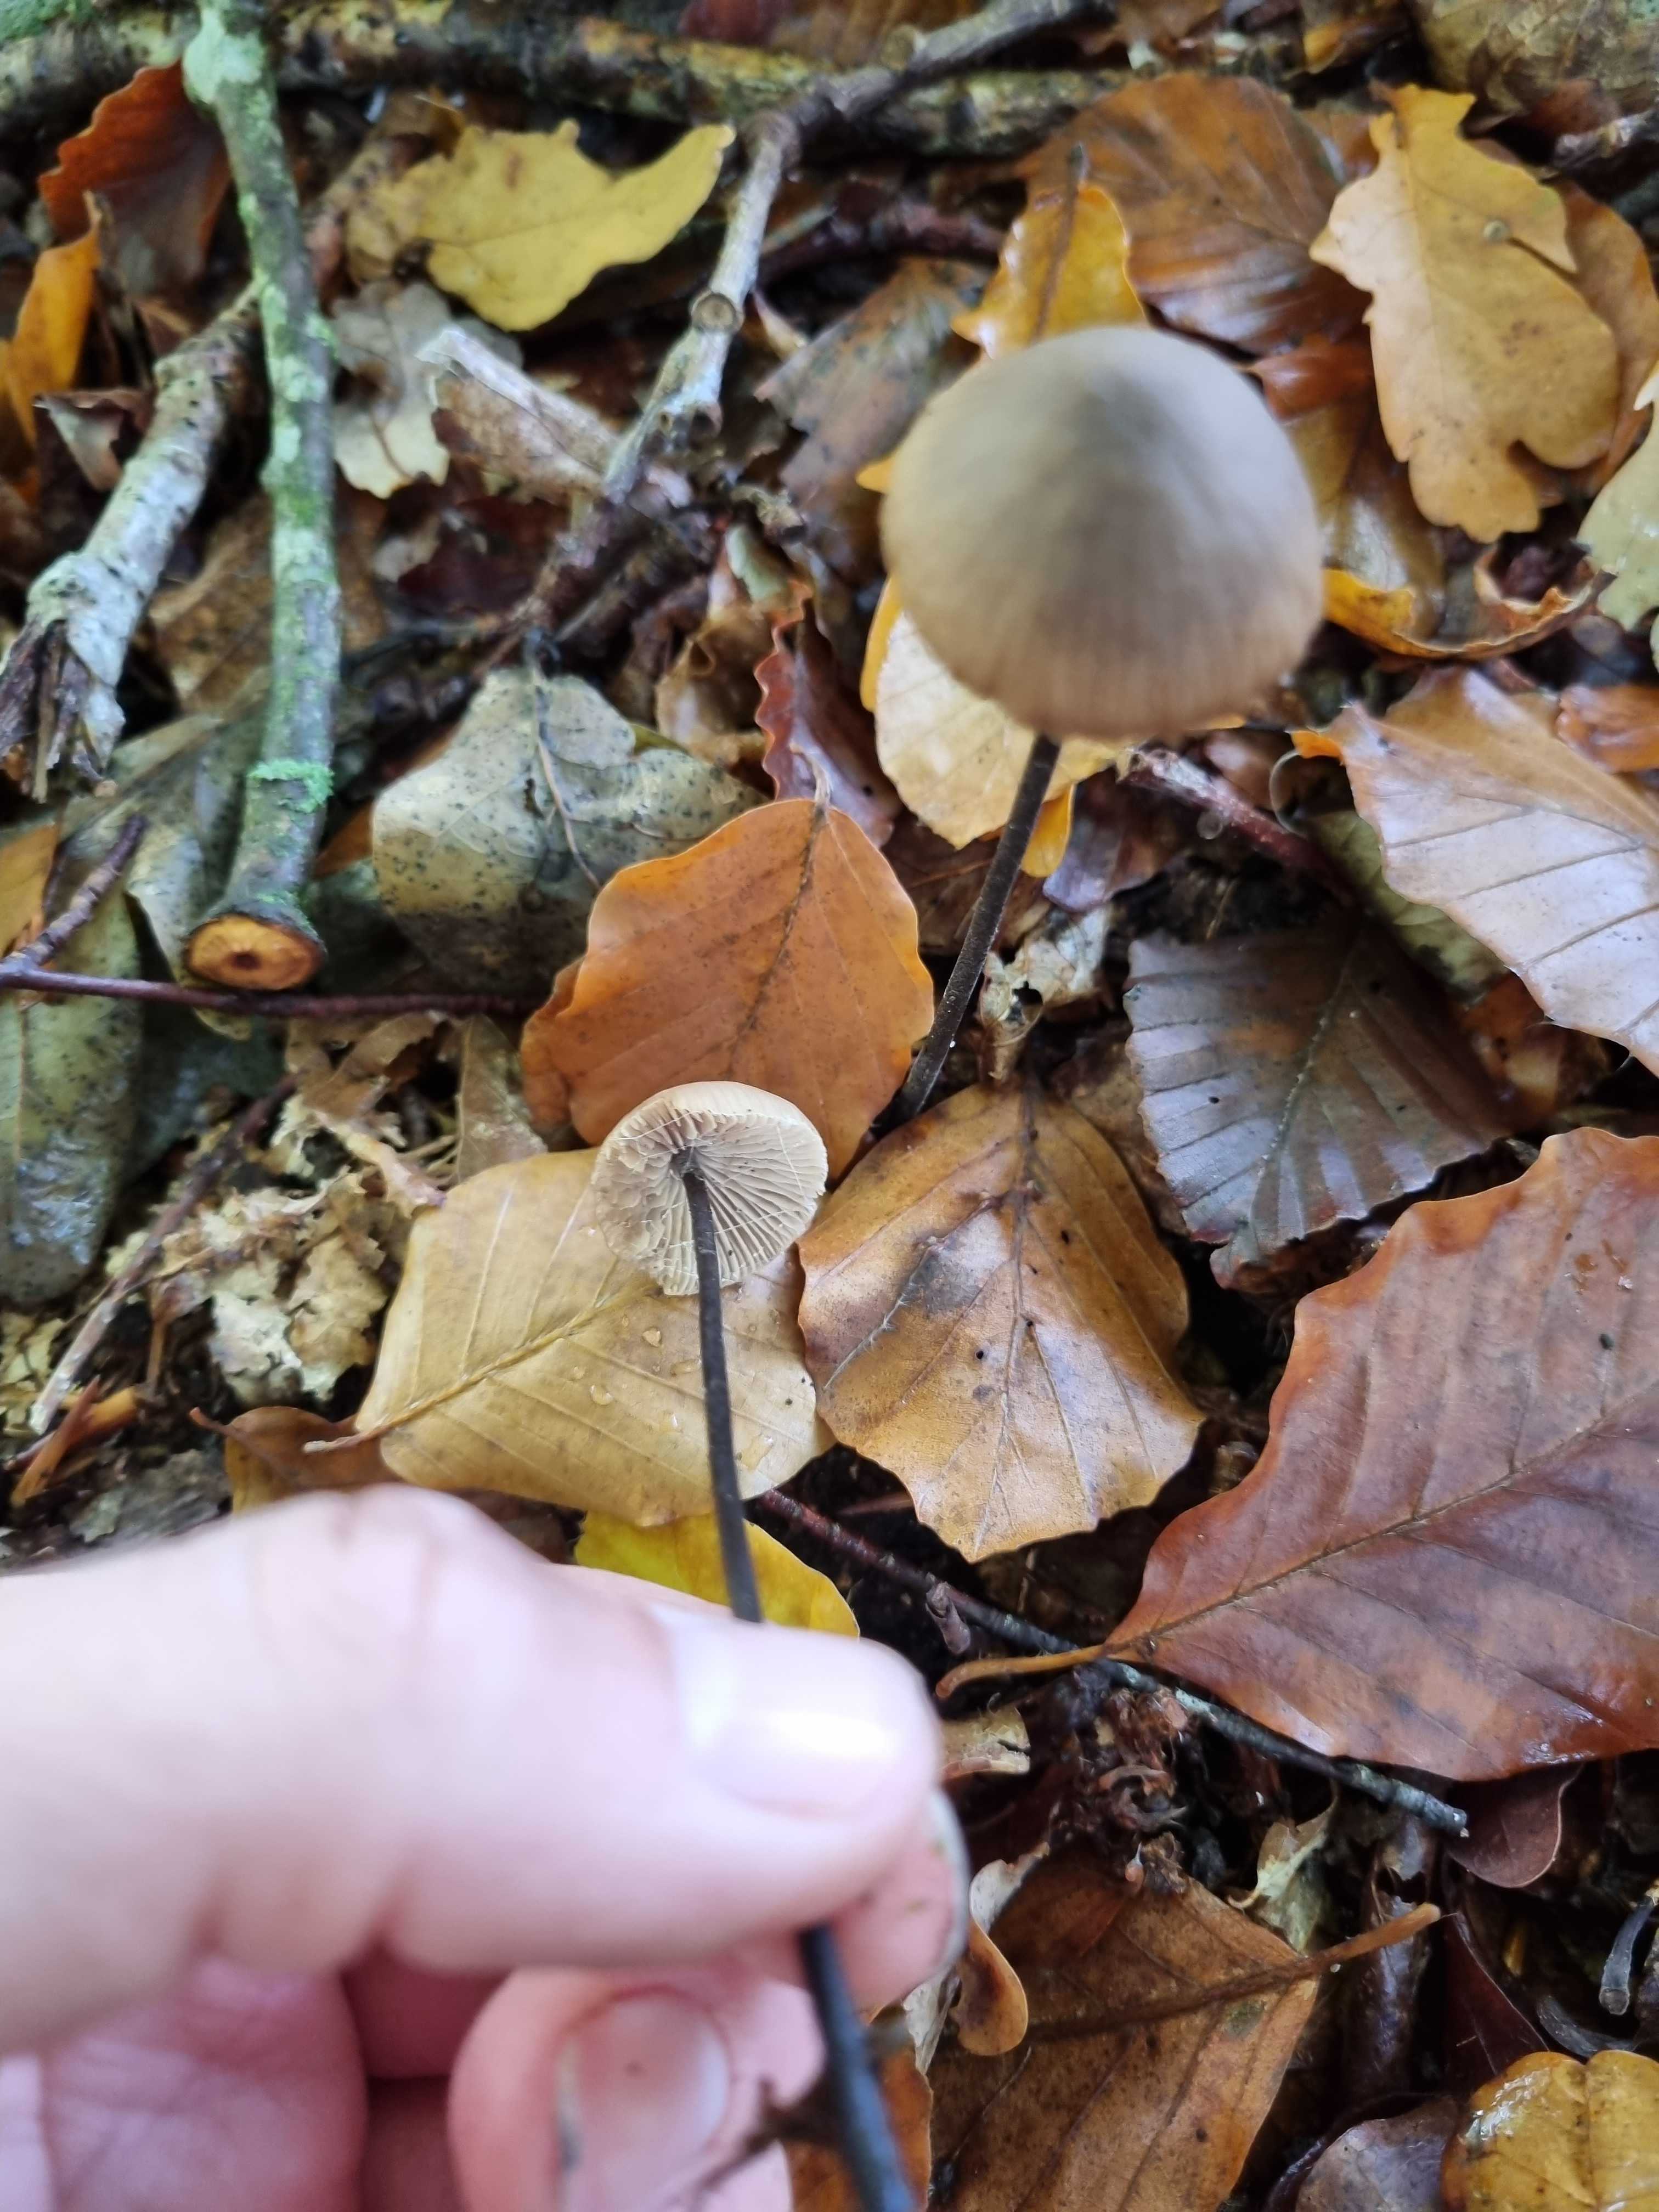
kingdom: Fungi
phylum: Basidiomycota
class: Agaricomycetes
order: Agaricales
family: Omphalotaceae
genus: Mycetinis
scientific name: Mycetinis alliaceus
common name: stor løghat
